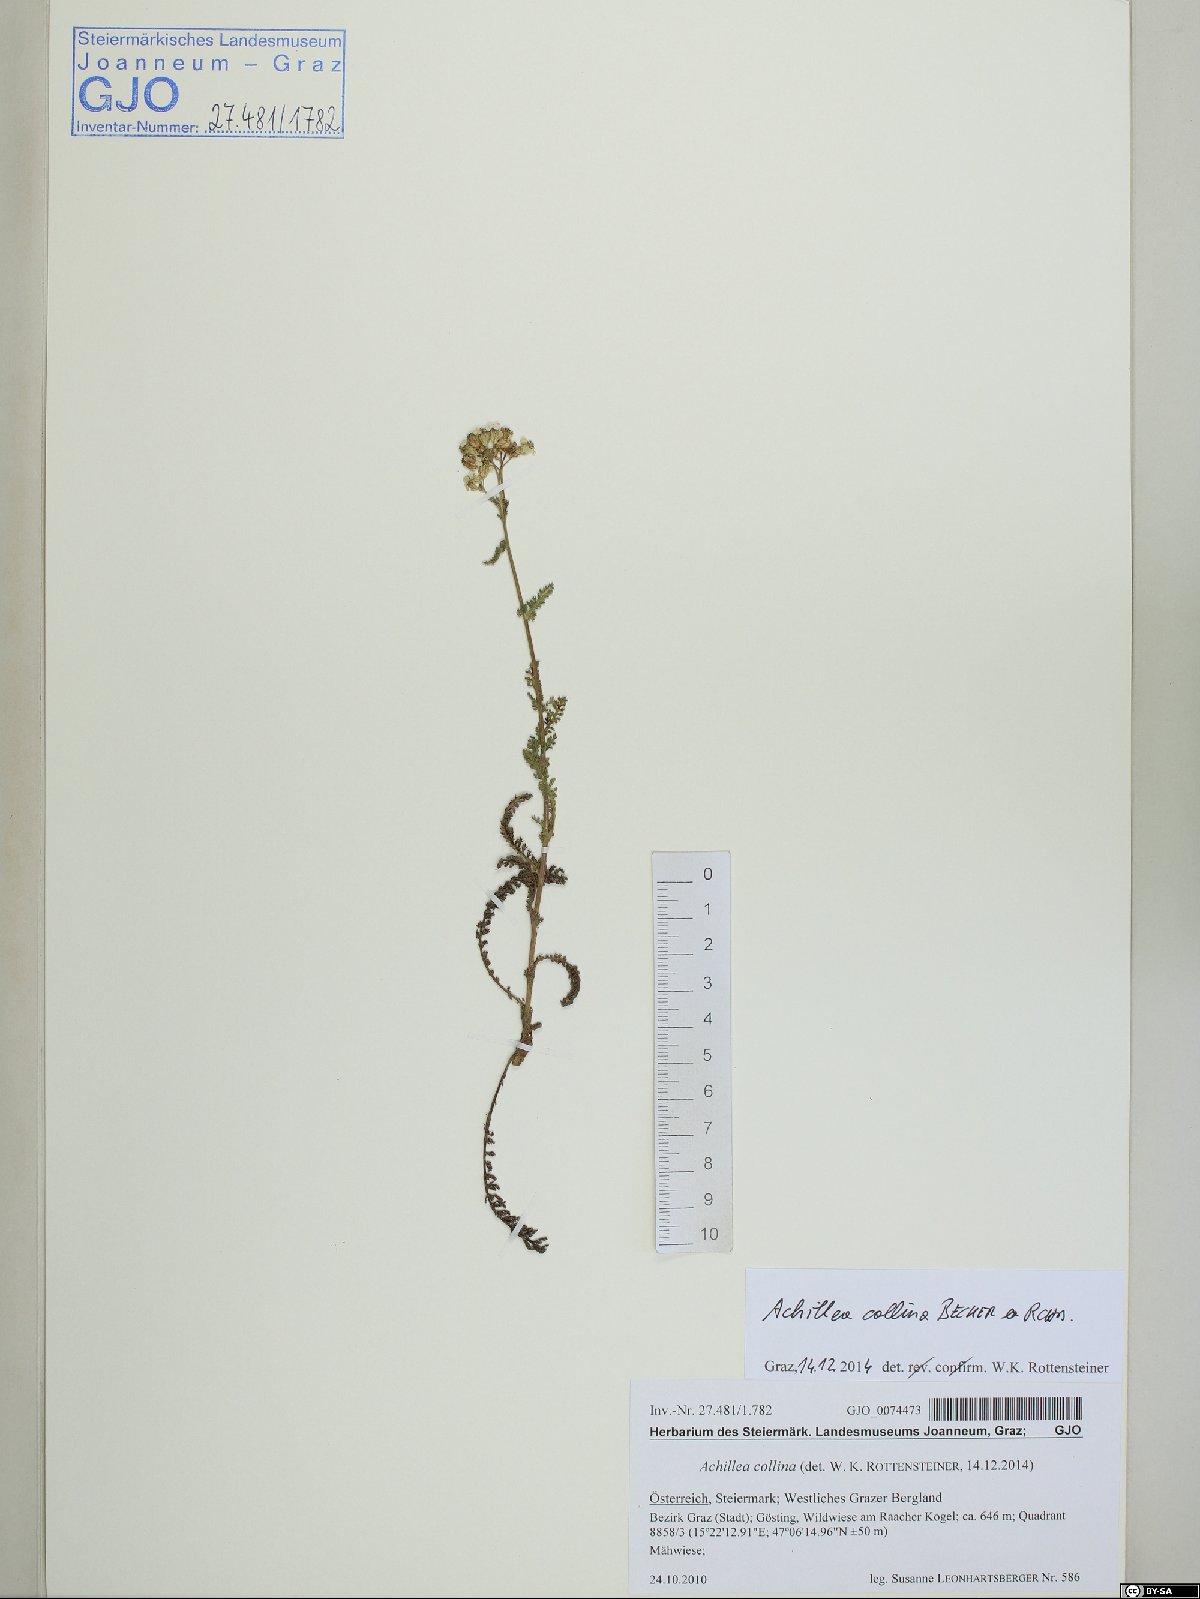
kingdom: Plantae
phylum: Tracheophyta
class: Magnoliopsida
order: Asterales
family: Asteraceae
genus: Achillea
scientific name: Achillea collina
